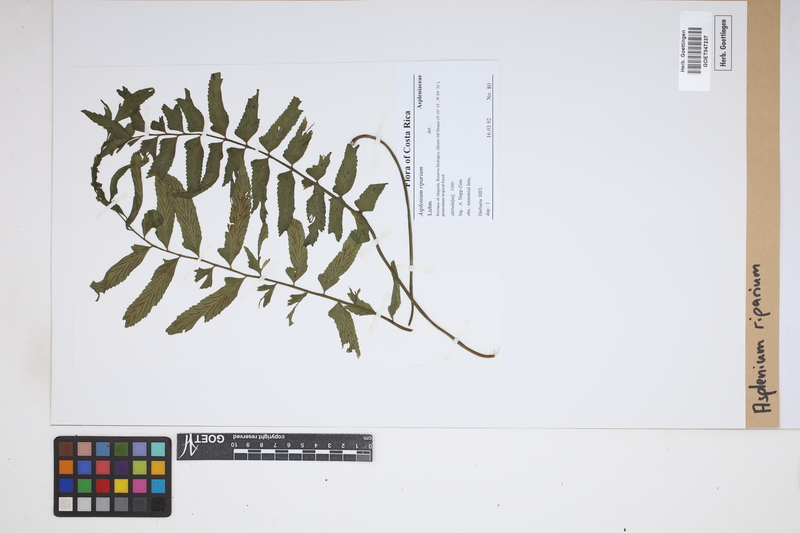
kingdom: Plantae
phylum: Tracheophyta
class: Polypodiopsida
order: Polypodiales
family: Aspleniaceae
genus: Hymenasplenium
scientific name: Hymenasplenium riparium
